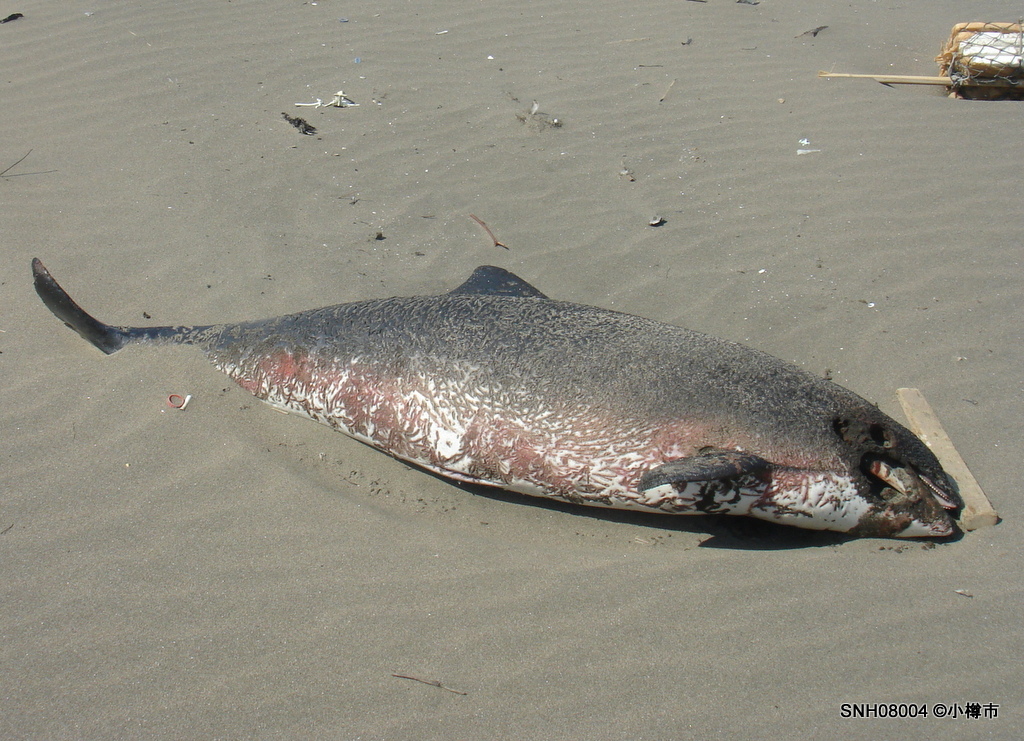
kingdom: Animalia
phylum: Chordata
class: Mammalia
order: Cetacea
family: Phocoenidae
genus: Phocoena
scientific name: Phocoena phocoena
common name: Harbour porpoise
